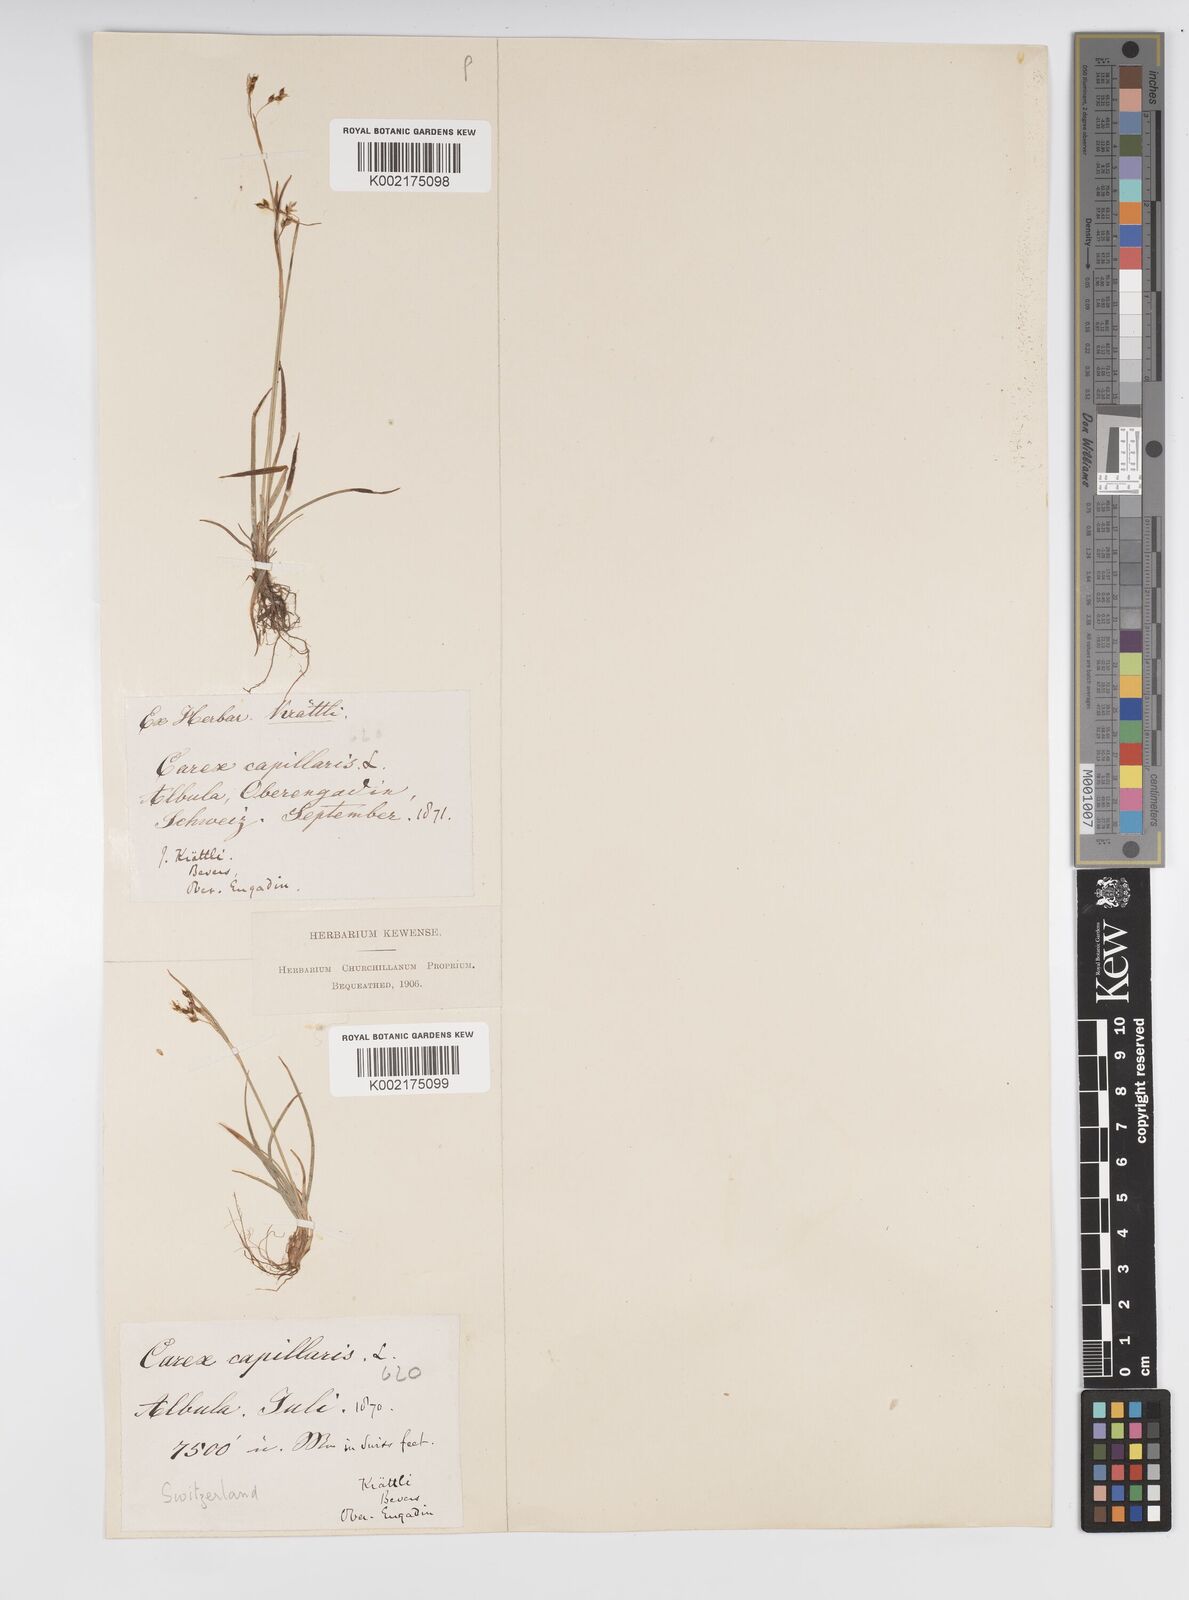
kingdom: Plantae
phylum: Tracheophyta
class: Liliopsida
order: Poales
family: Cyperaceae
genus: Carex
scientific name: Carex capillaris
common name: Hair sedge
